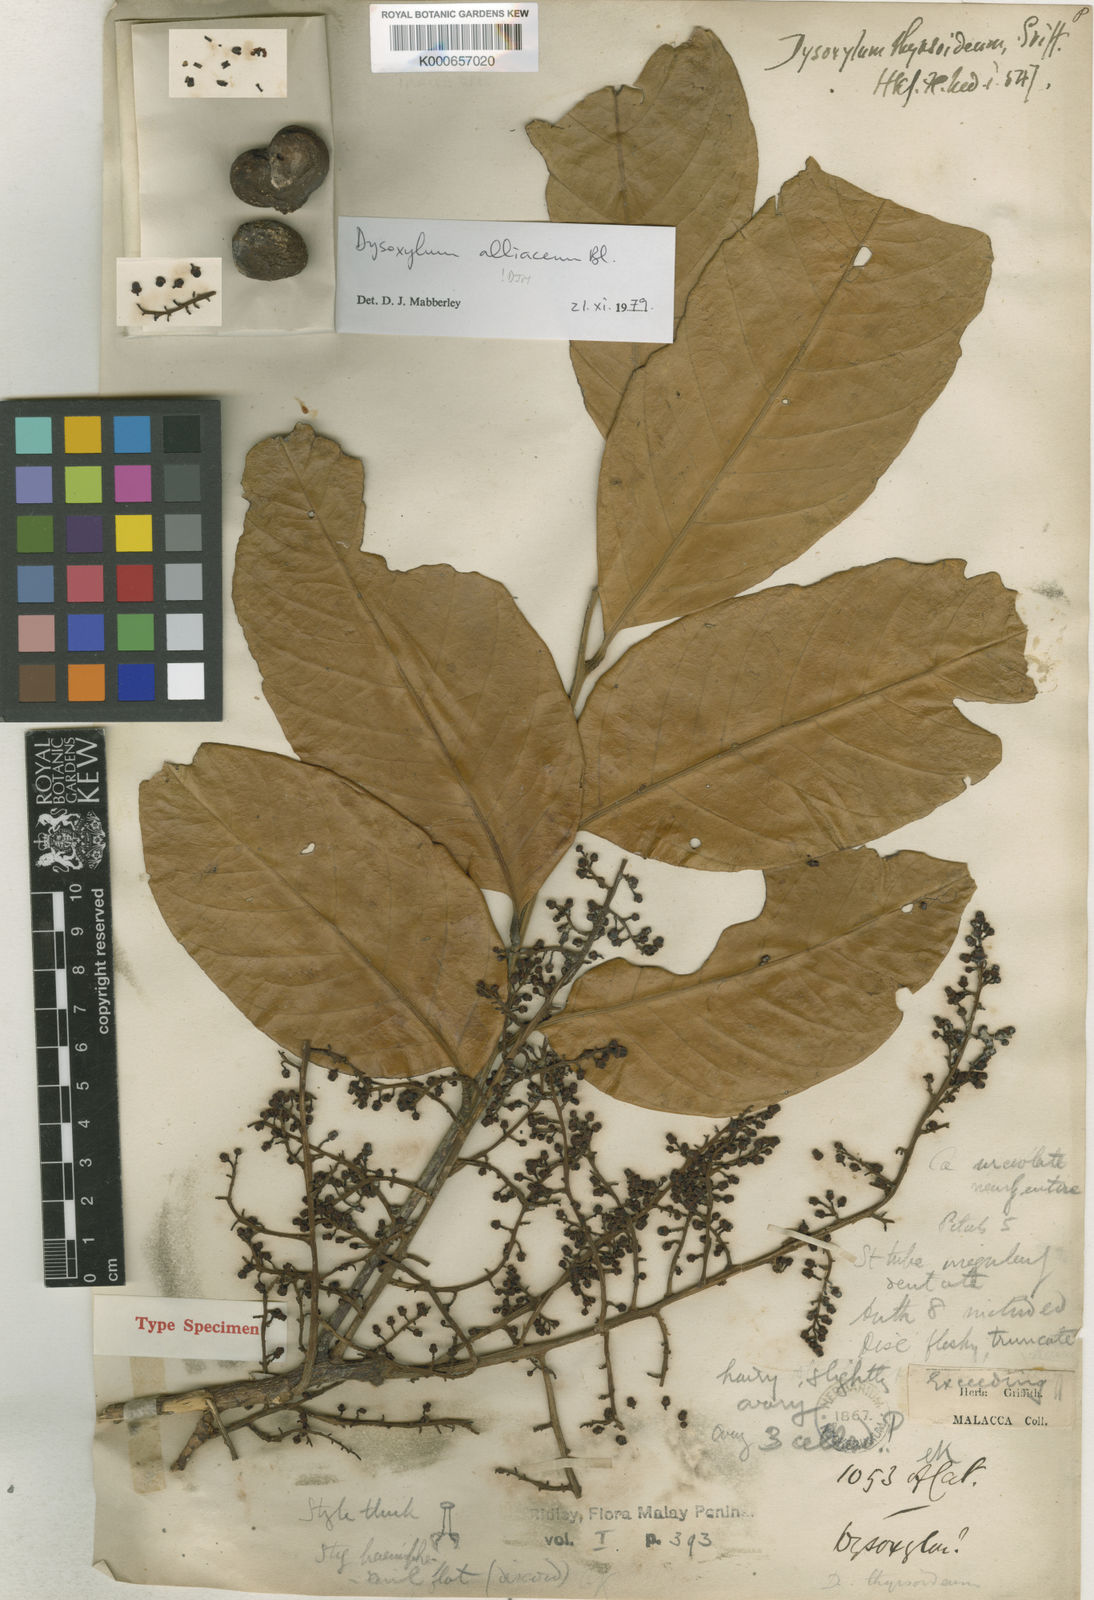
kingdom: Plantae
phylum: Tracheophyta
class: Magnoliopsida
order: Sapindales
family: Meliaceae
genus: Prasoxylon
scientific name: Prasoxylon alliaceum
